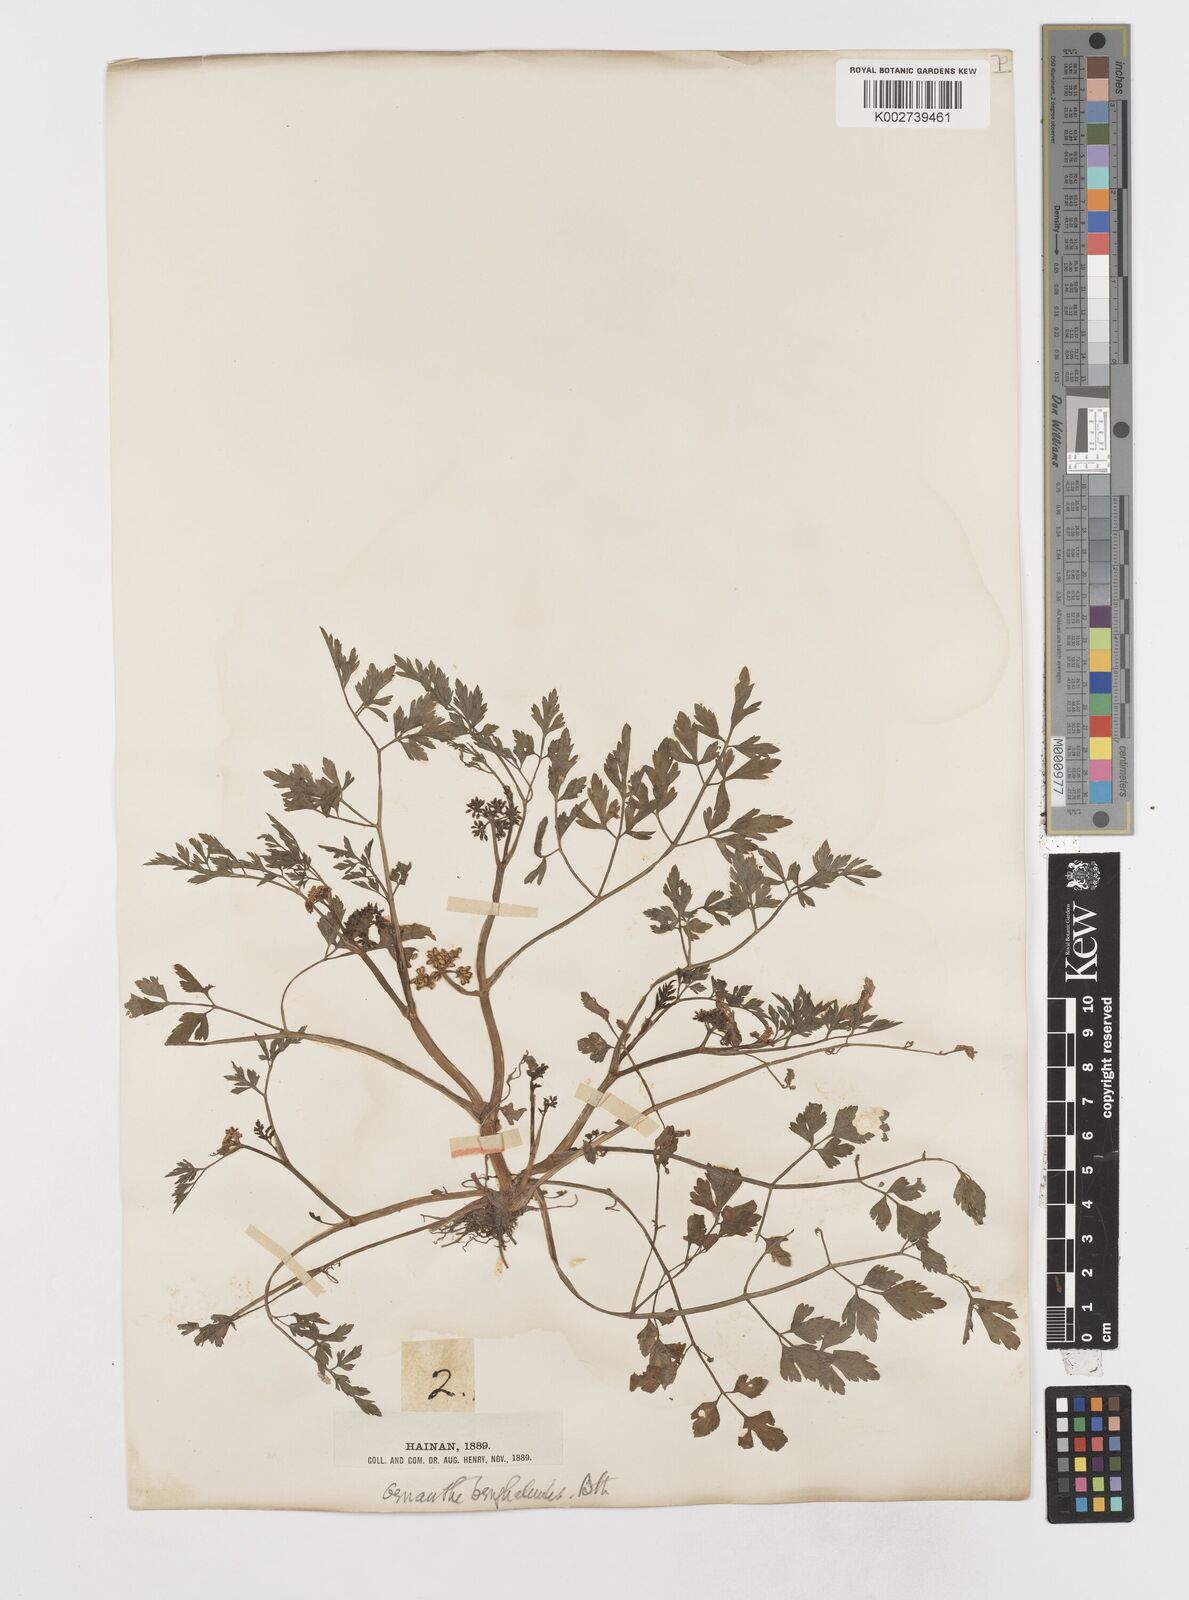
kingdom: Plantae
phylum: Tracheophyta
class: Magnoliopsida
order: Apiales
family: Apiaceae
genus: Oenanthe
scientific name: Oenanthe javanica
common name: Java water-dropwort
